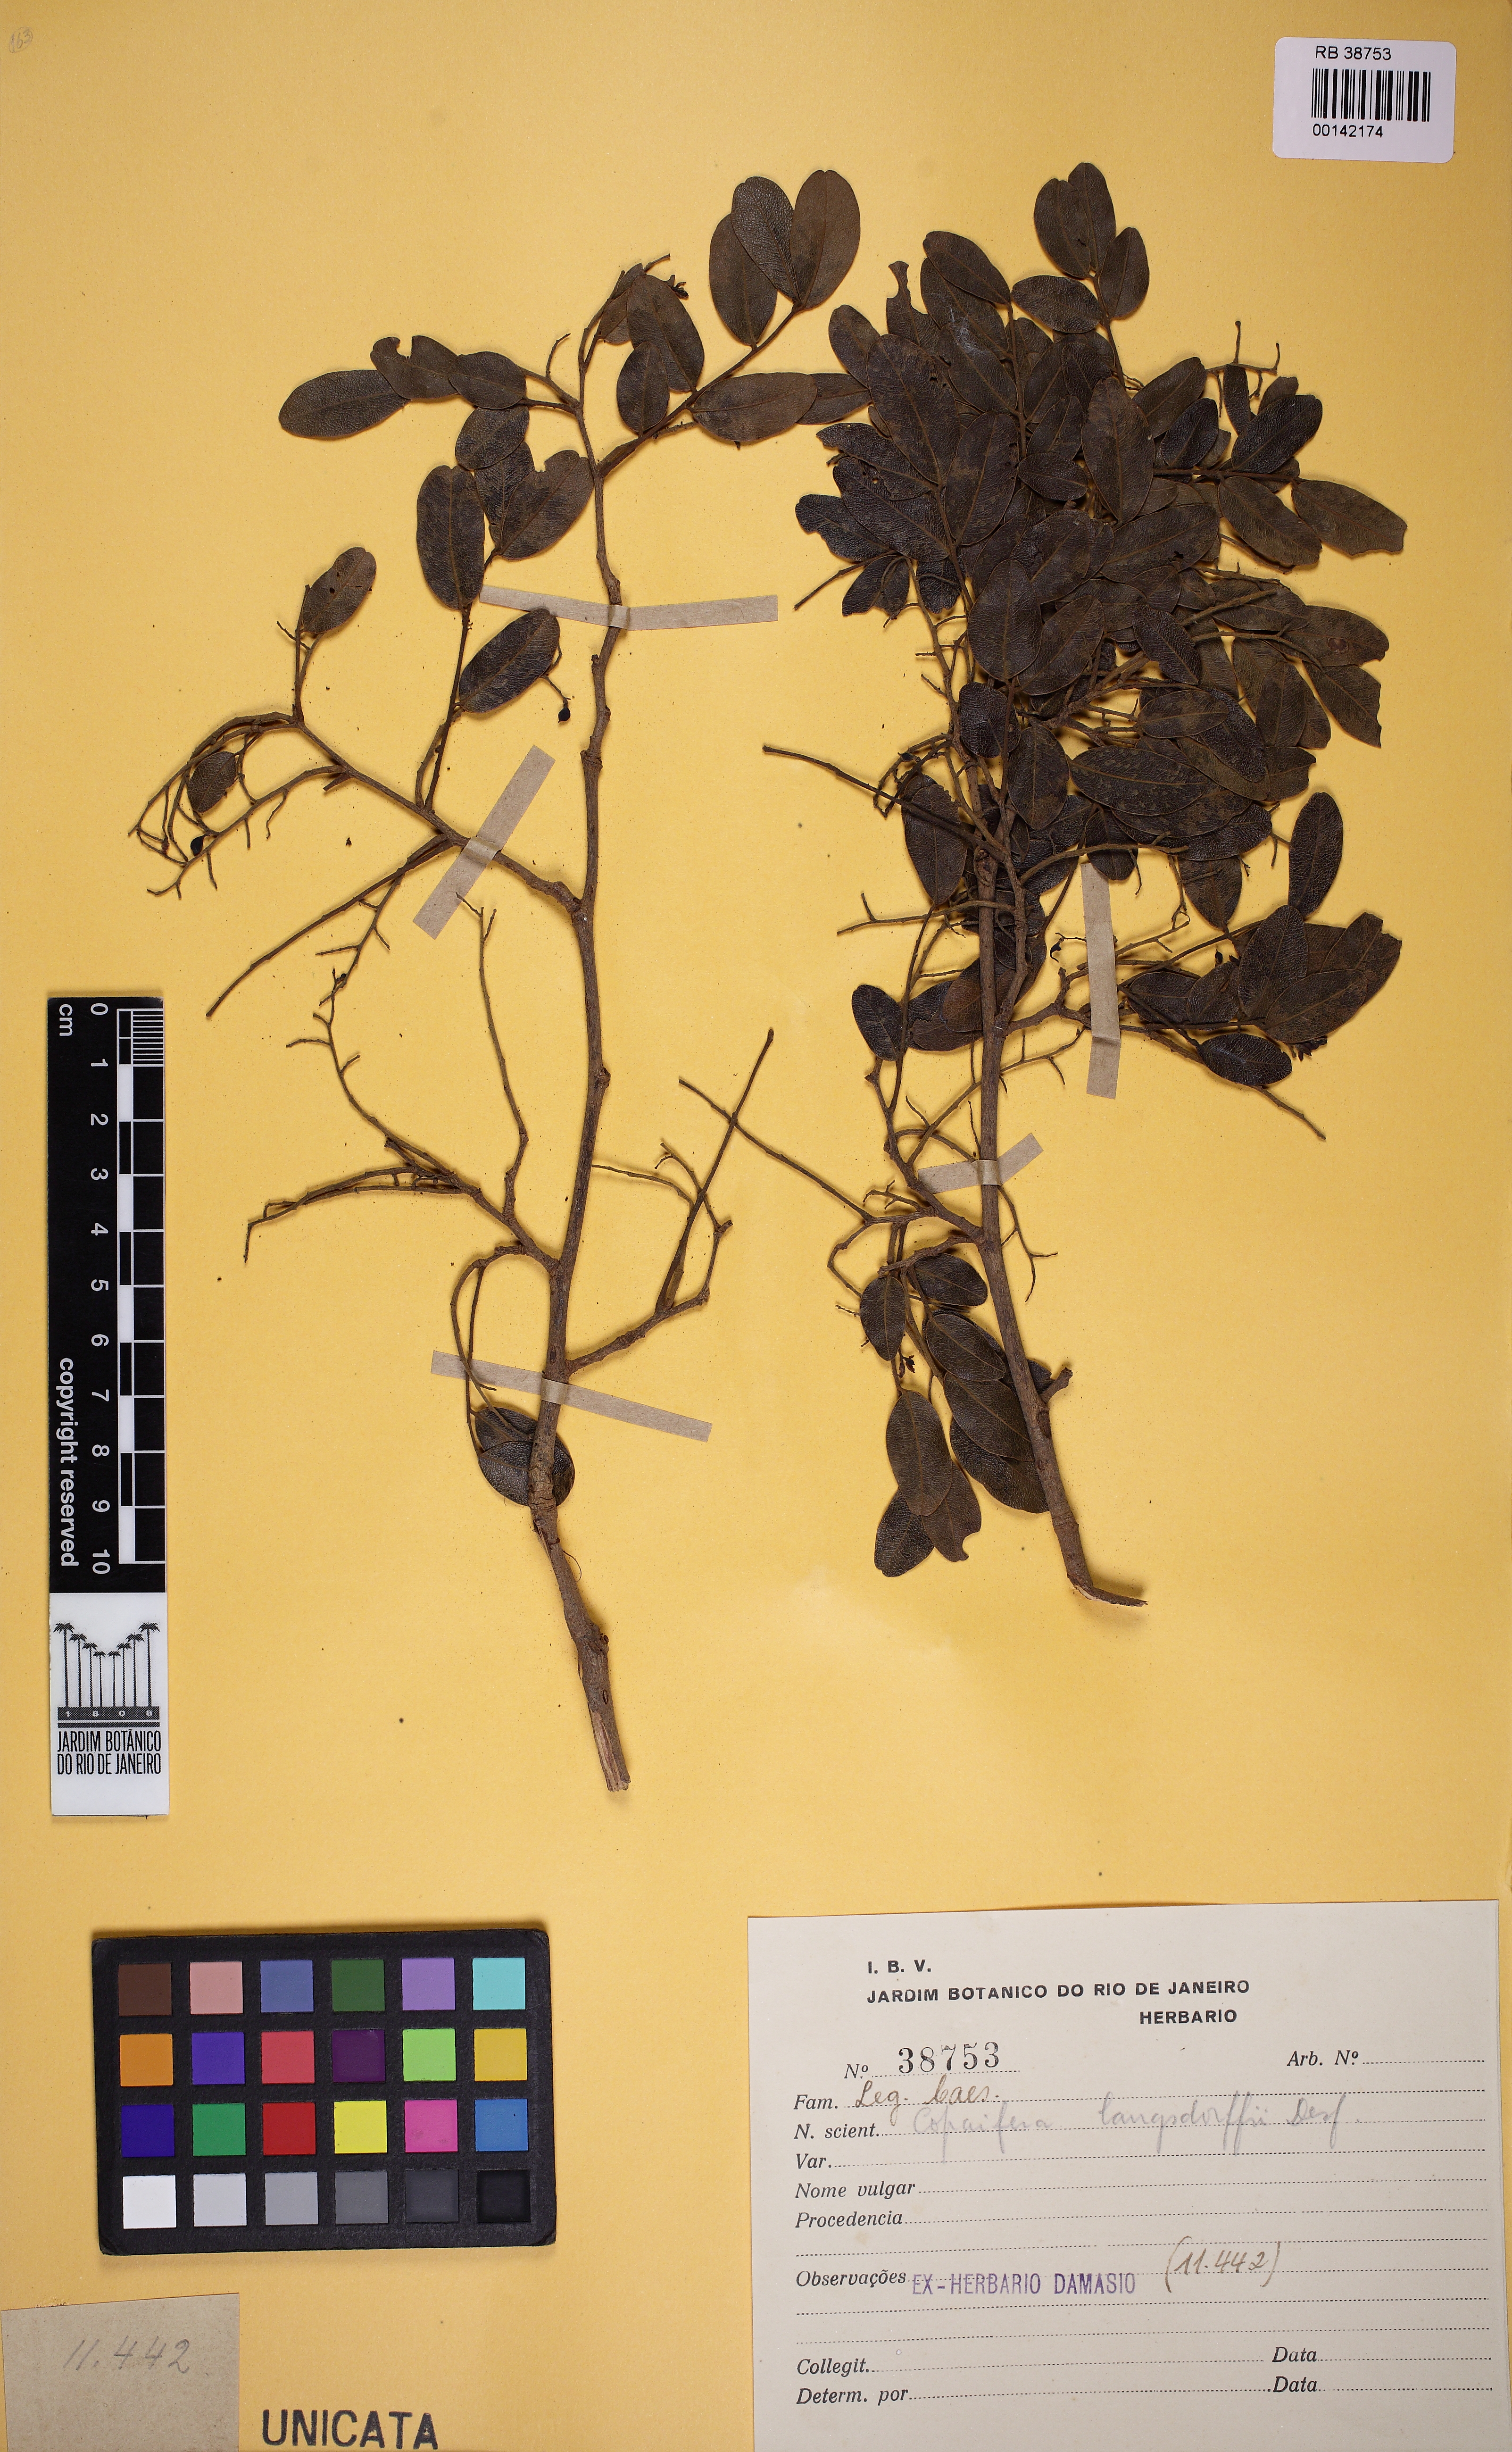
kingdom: Plantae
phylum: Tracheophyta
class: Magnoliopsida
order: Fabales
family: Fabaceae
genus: Copaifera
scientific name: Copaifera langsdorffii
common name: Brazilian diesel tree
